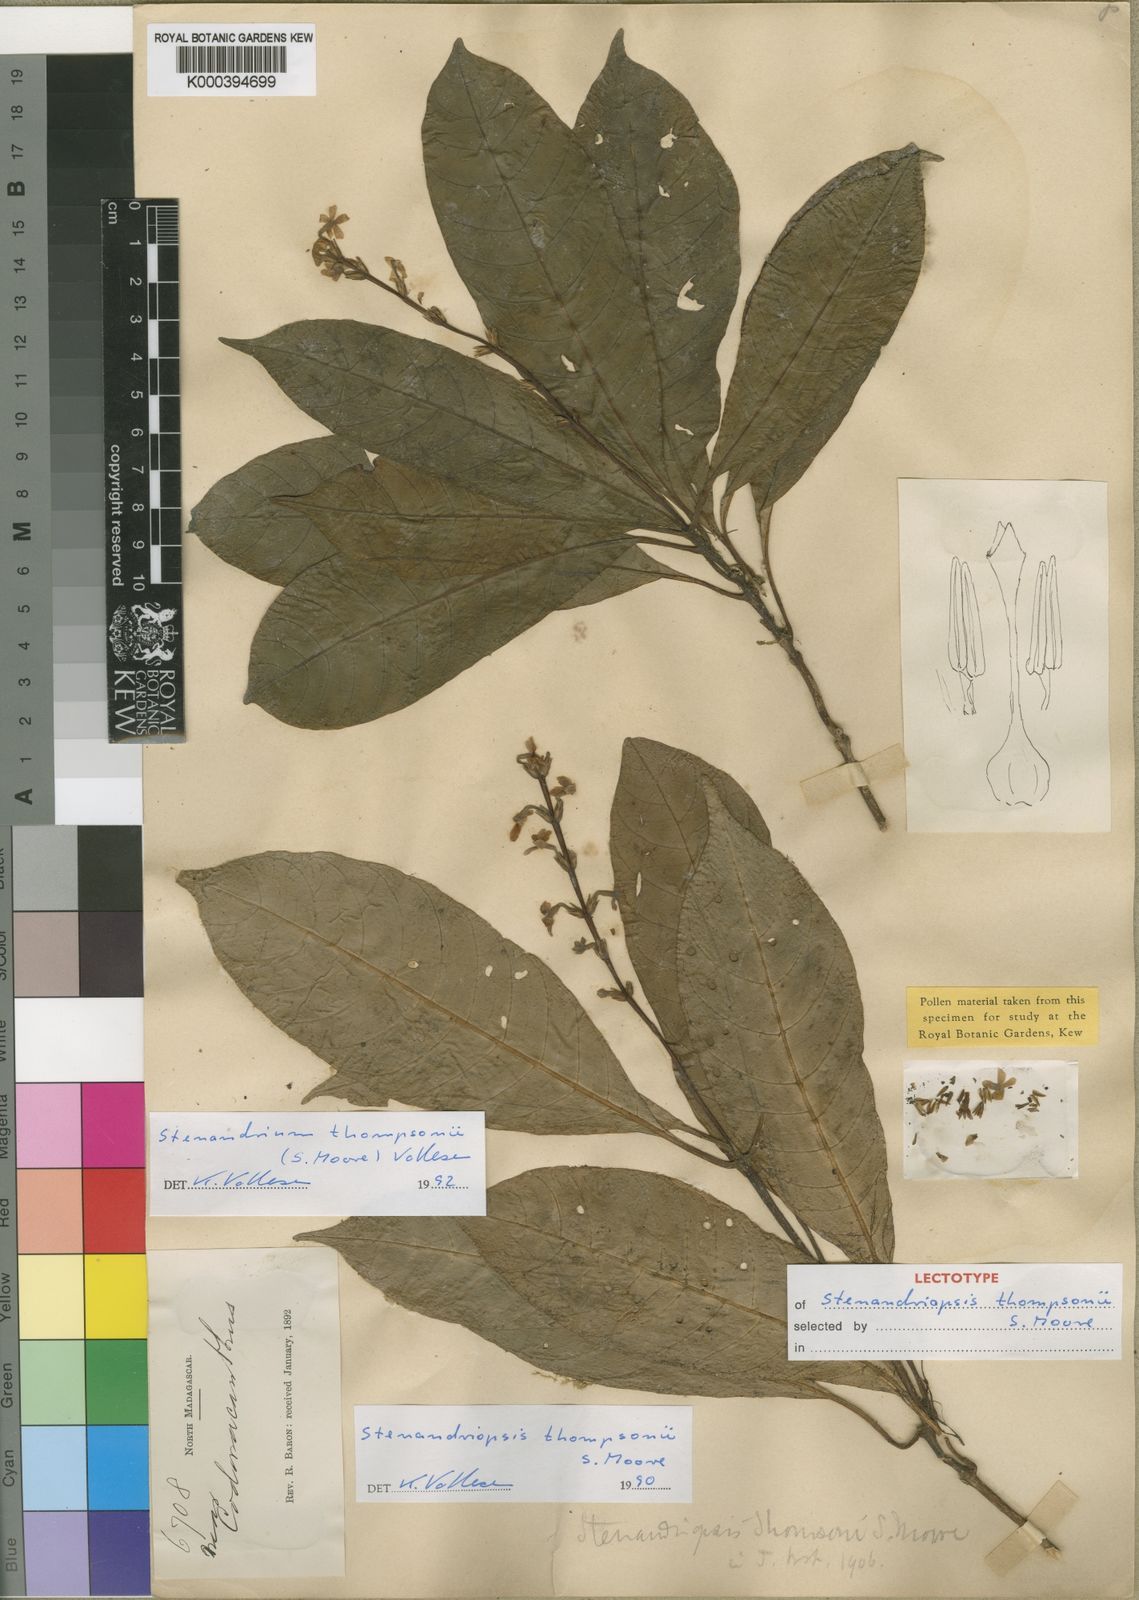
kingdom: Plantae
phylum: Tracheophyta
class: Magnoliopsida
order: Lamiales
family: Acanthaceae
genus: Stenandriopsis
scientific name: Stenandriopsis thompsonii
